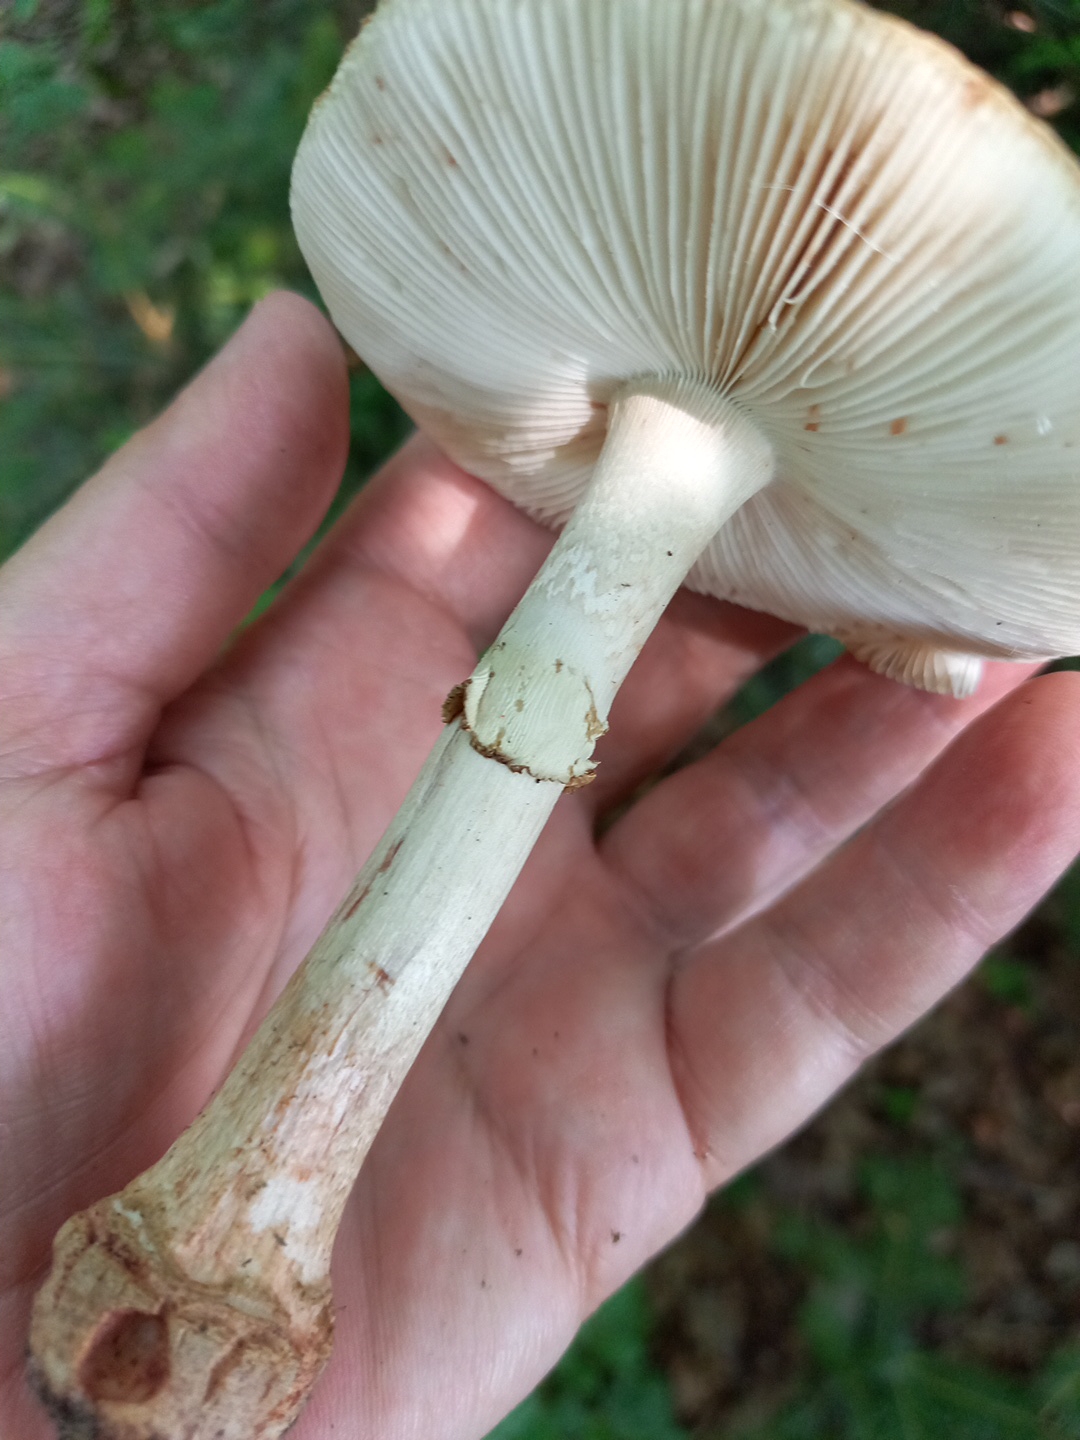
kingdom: Fungi
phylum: Basidiomycota
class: Agaricomycetes
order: Agaricales
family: Amanitaceae
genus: Amanita
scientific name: Amanita rubescens
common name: rødmende fluesvamp
